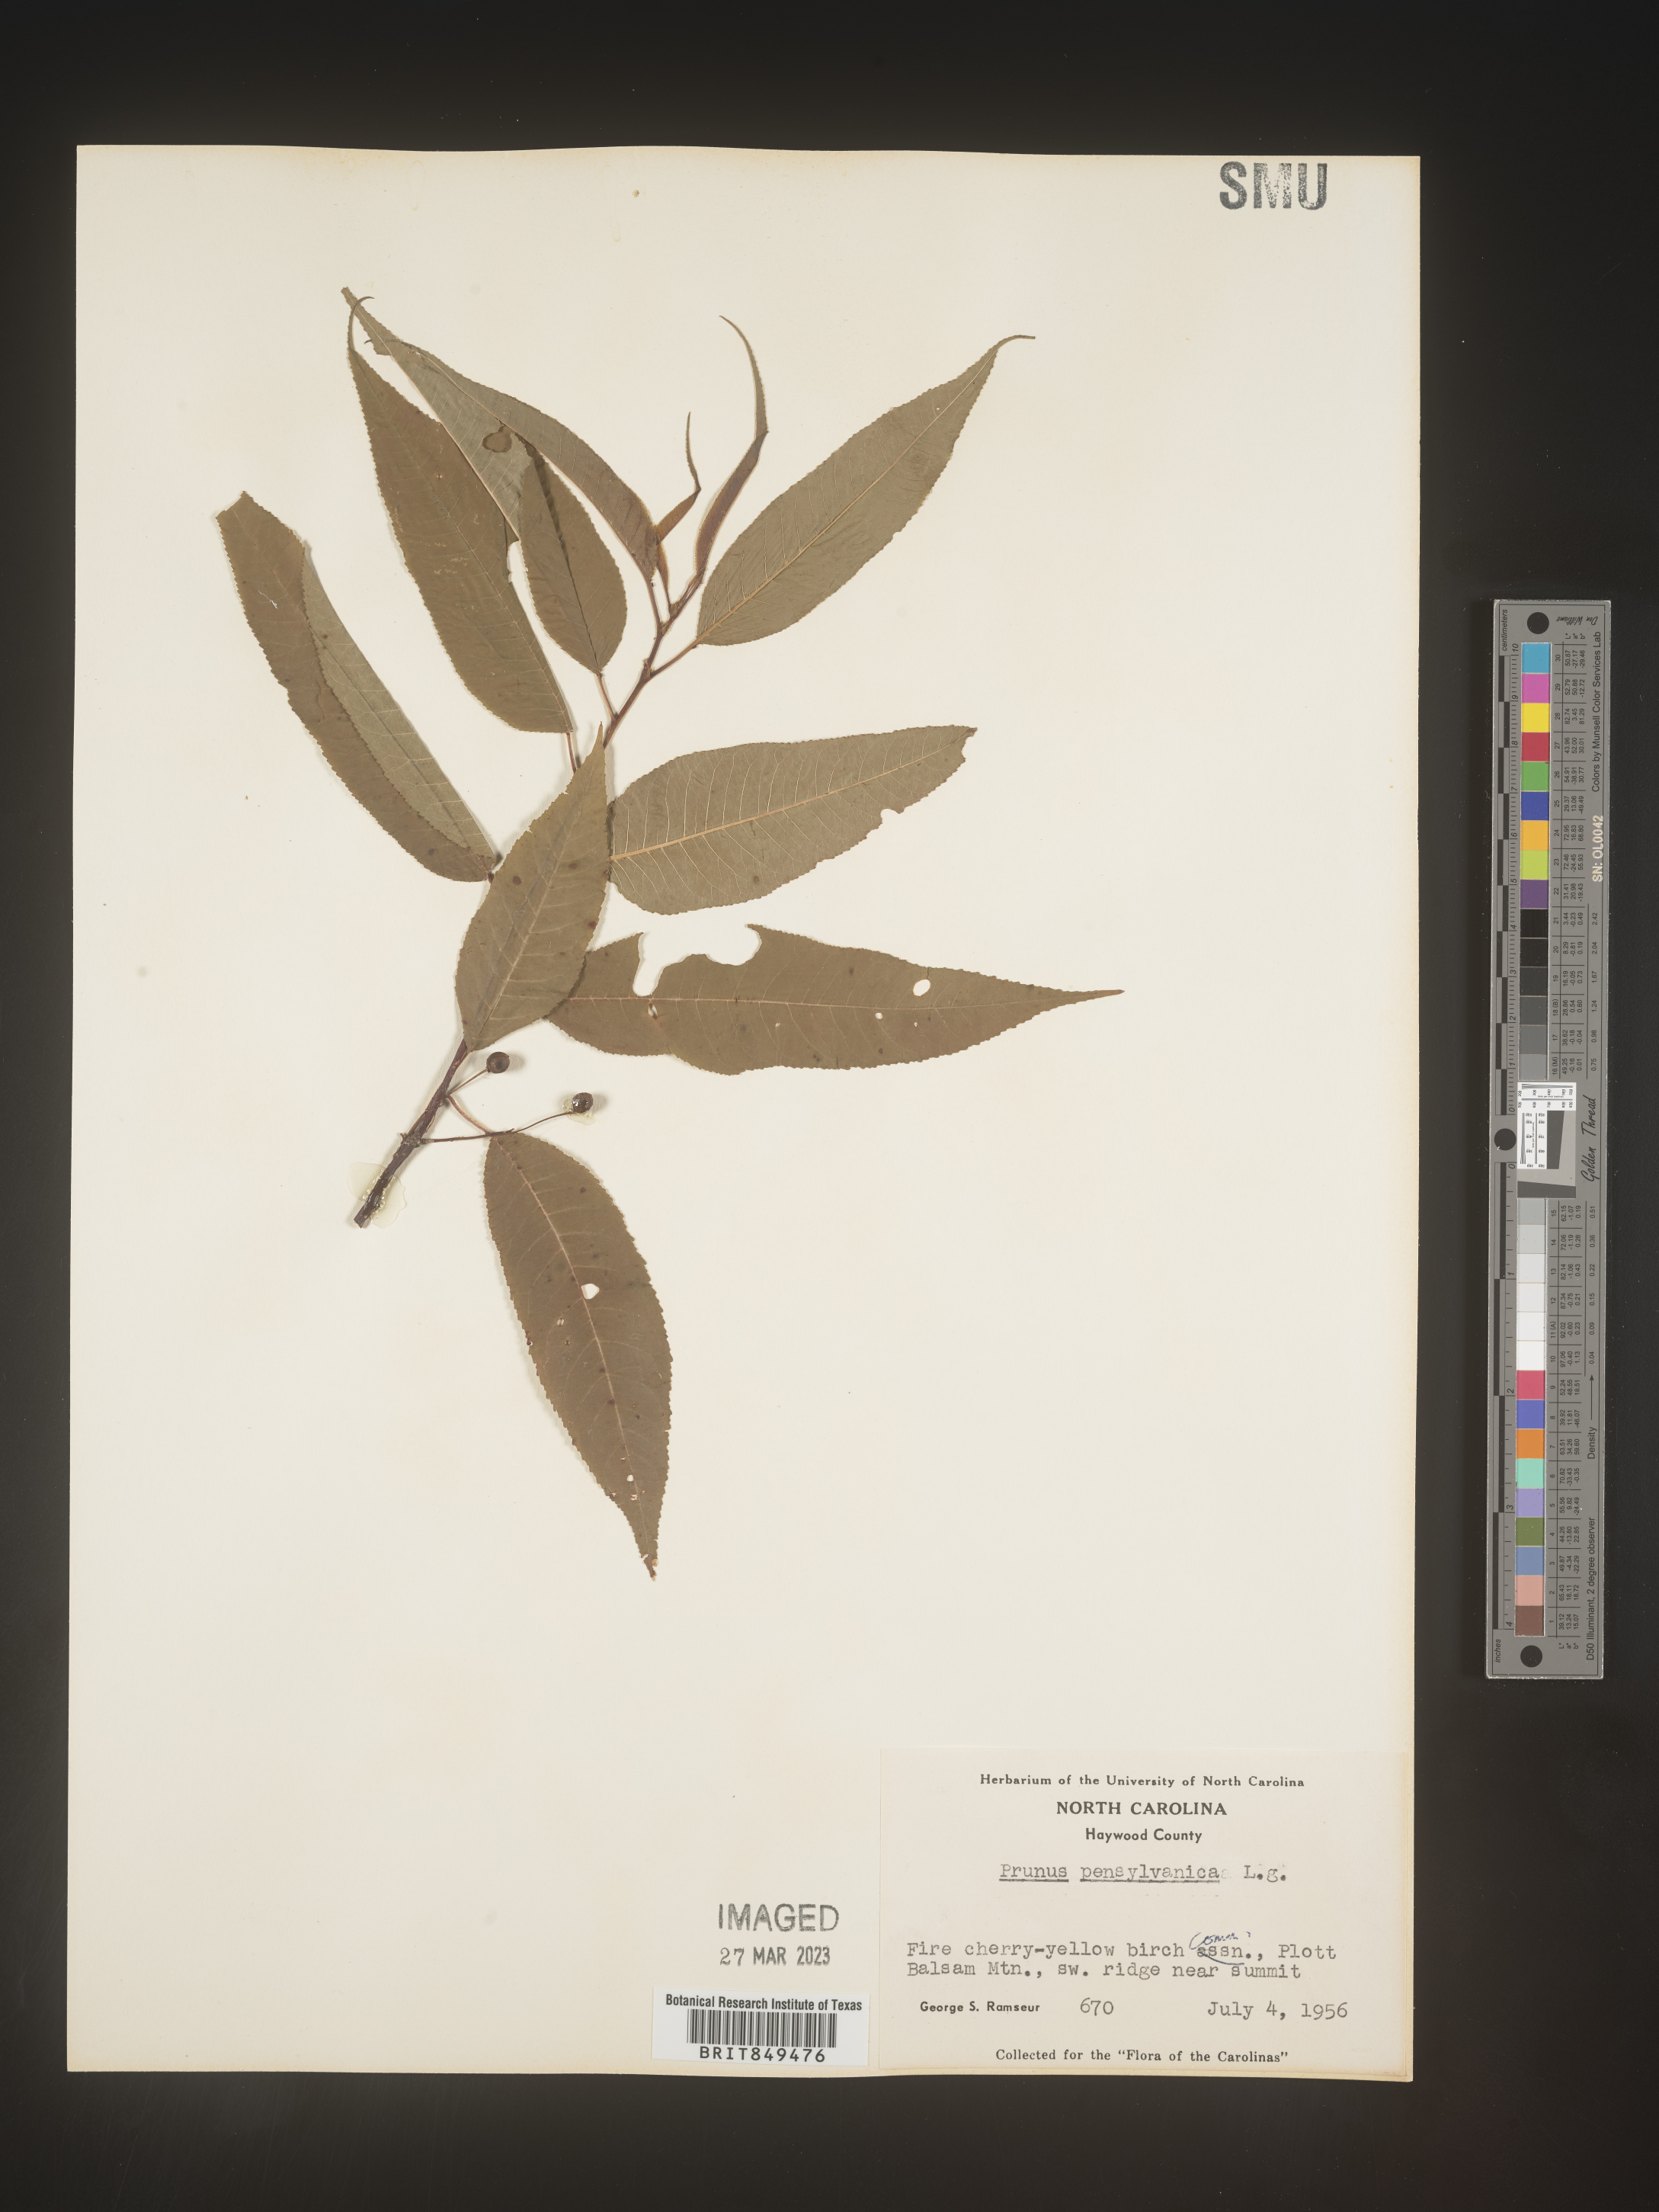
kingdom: Plantae
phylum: Tracheophyta
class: Magnoliopsida
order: Rosales
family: Rosaceae
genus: Prunus
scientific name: Prunus pensylvanica
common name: Pin cherry
